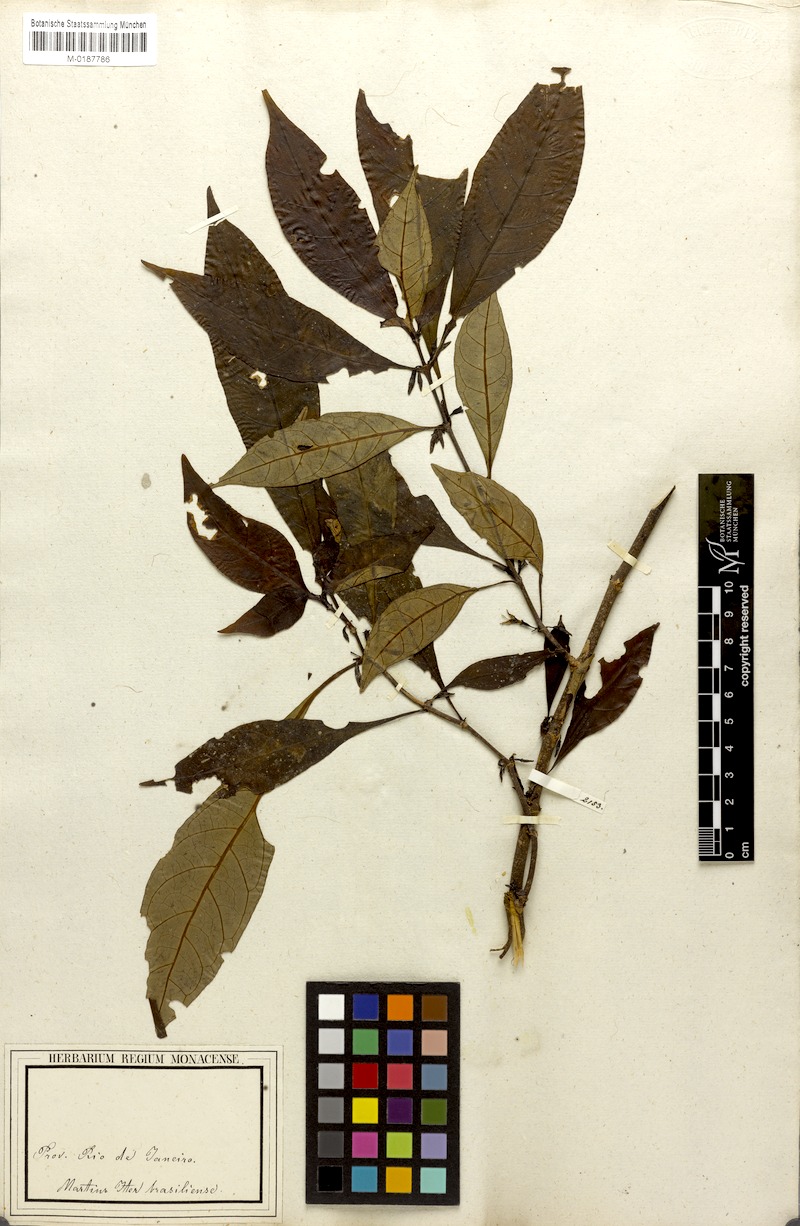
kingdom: Plantae
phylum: Tracheophyta
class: Magnoliopsida
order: Gentianales
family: Rubiaceae
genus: Hoffmannia
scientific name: Hoffmannia peckii
